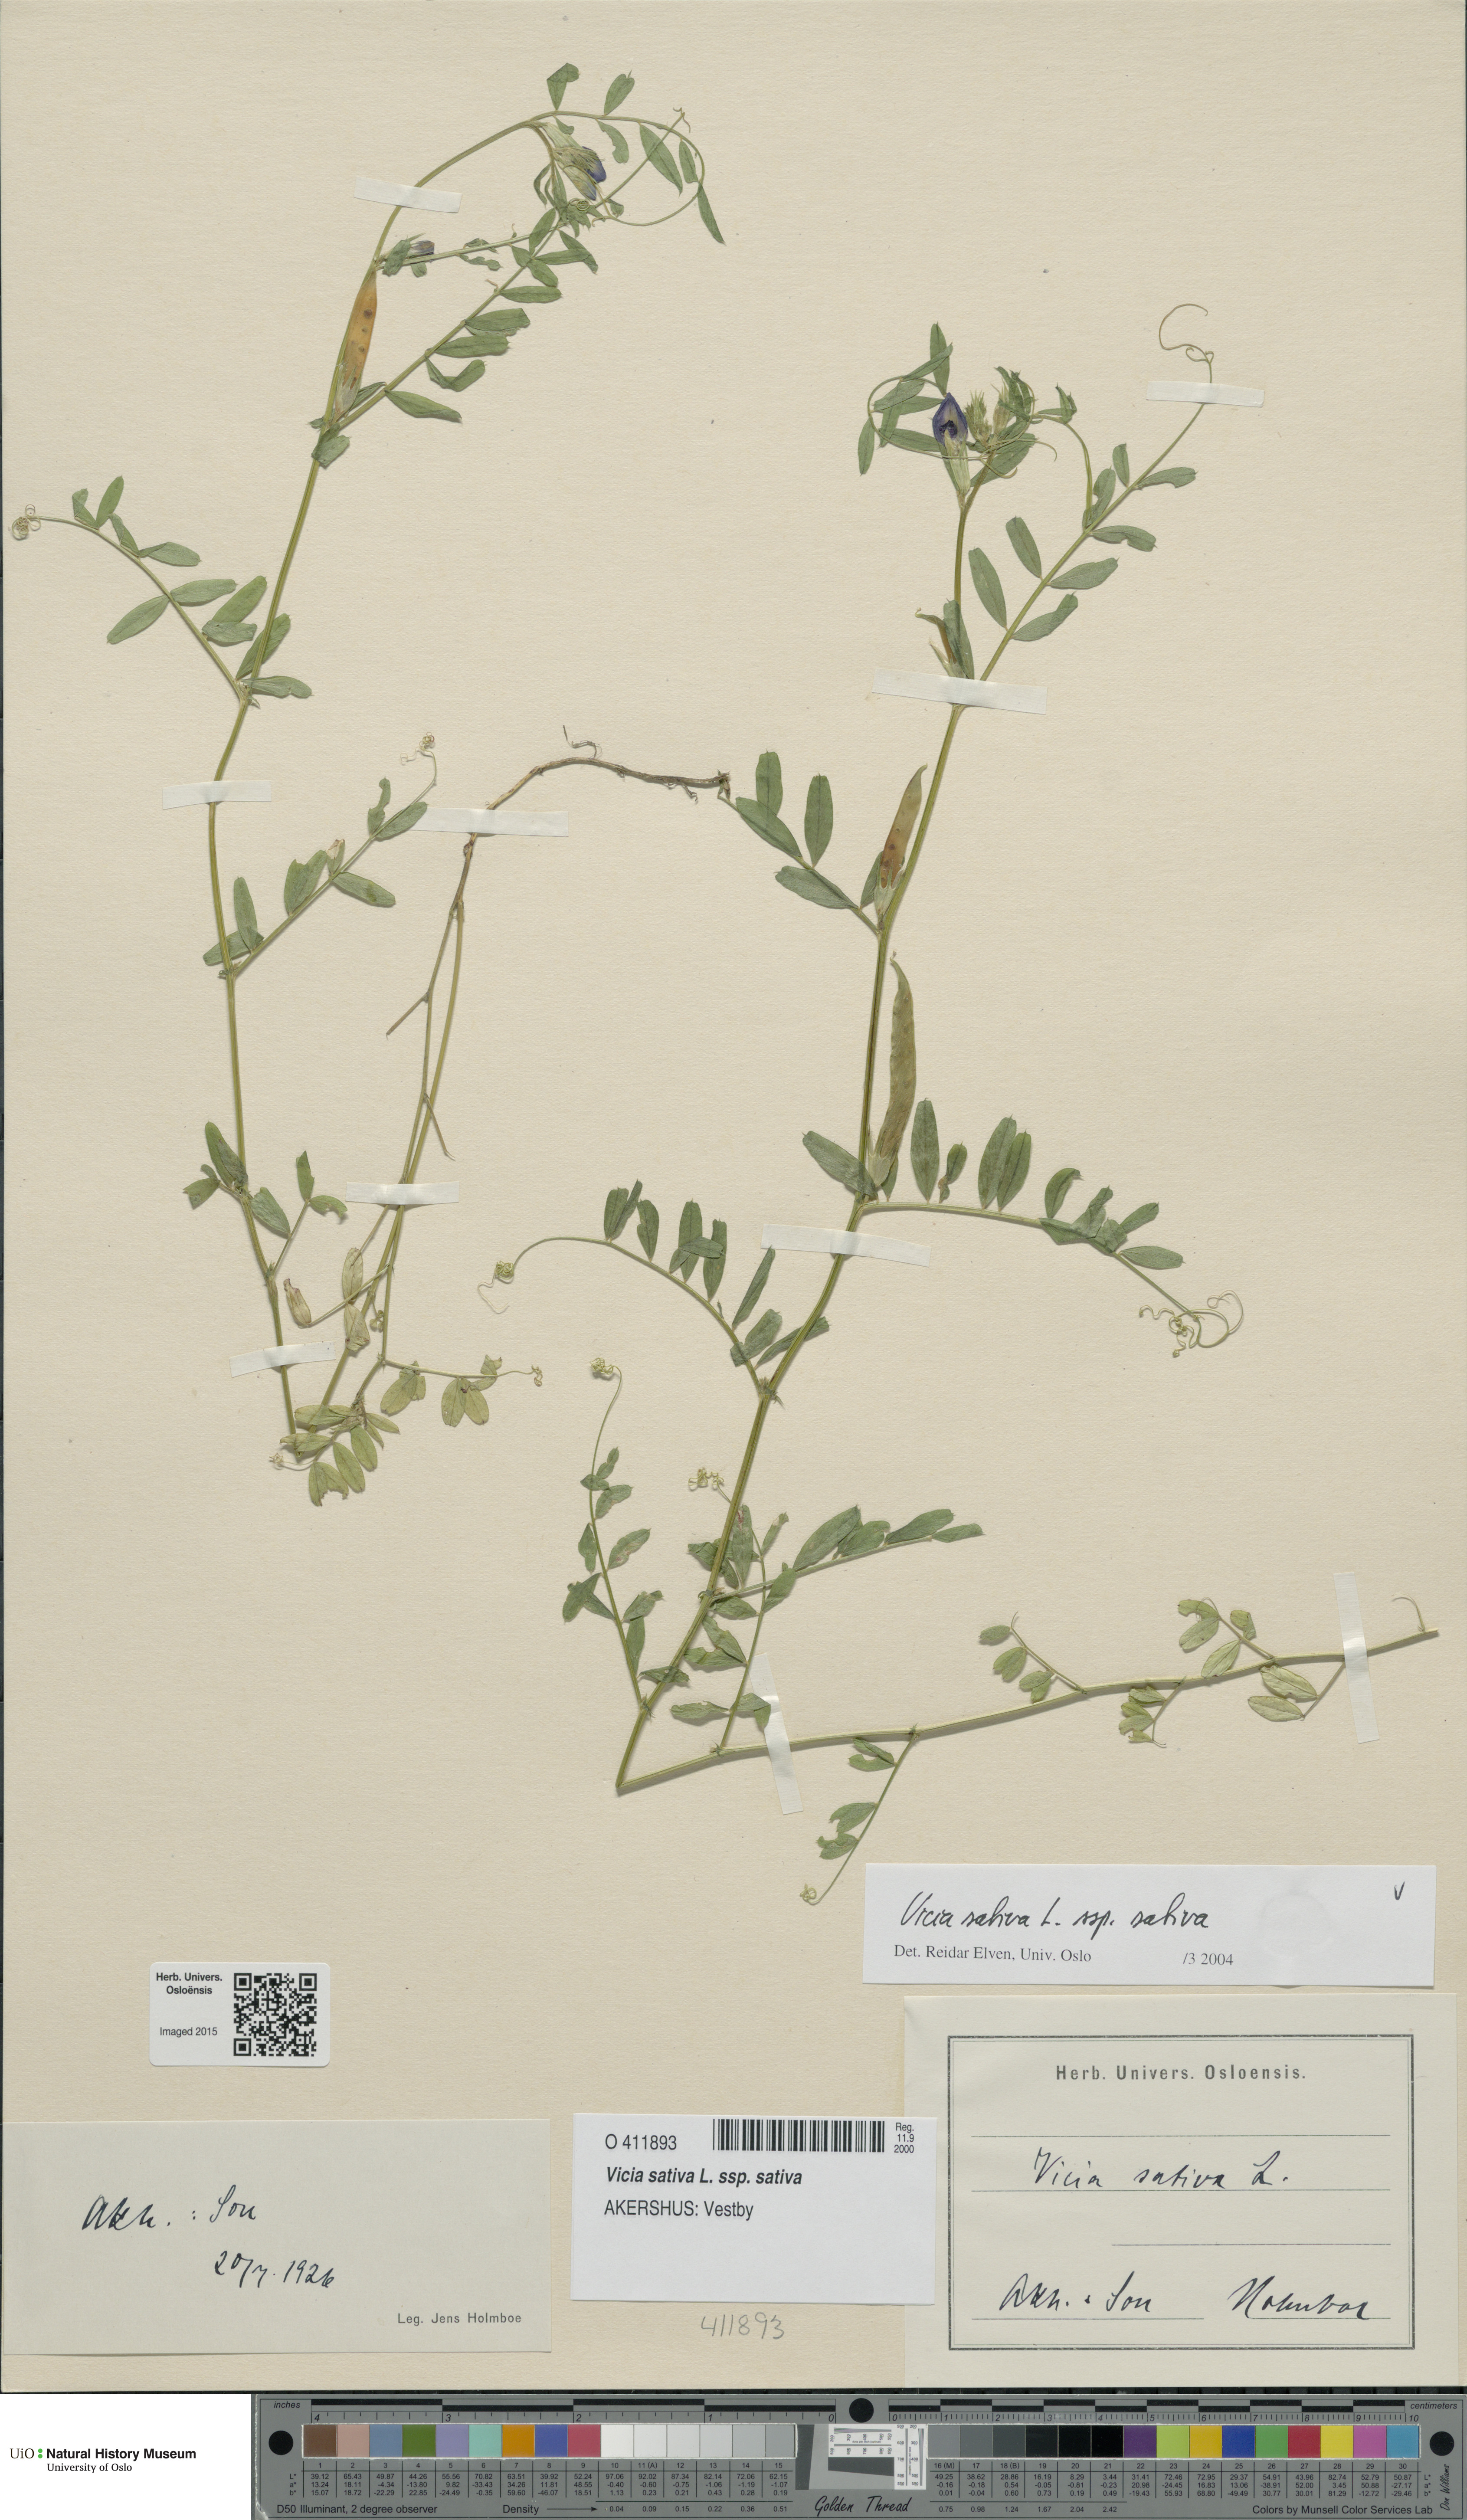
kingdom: Plantae
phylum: Tracheophyta
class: Magnoliopsida
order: Fabales
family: Fabaceae
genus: Vicia
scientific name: Vicia sativa
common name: Garden vetch
